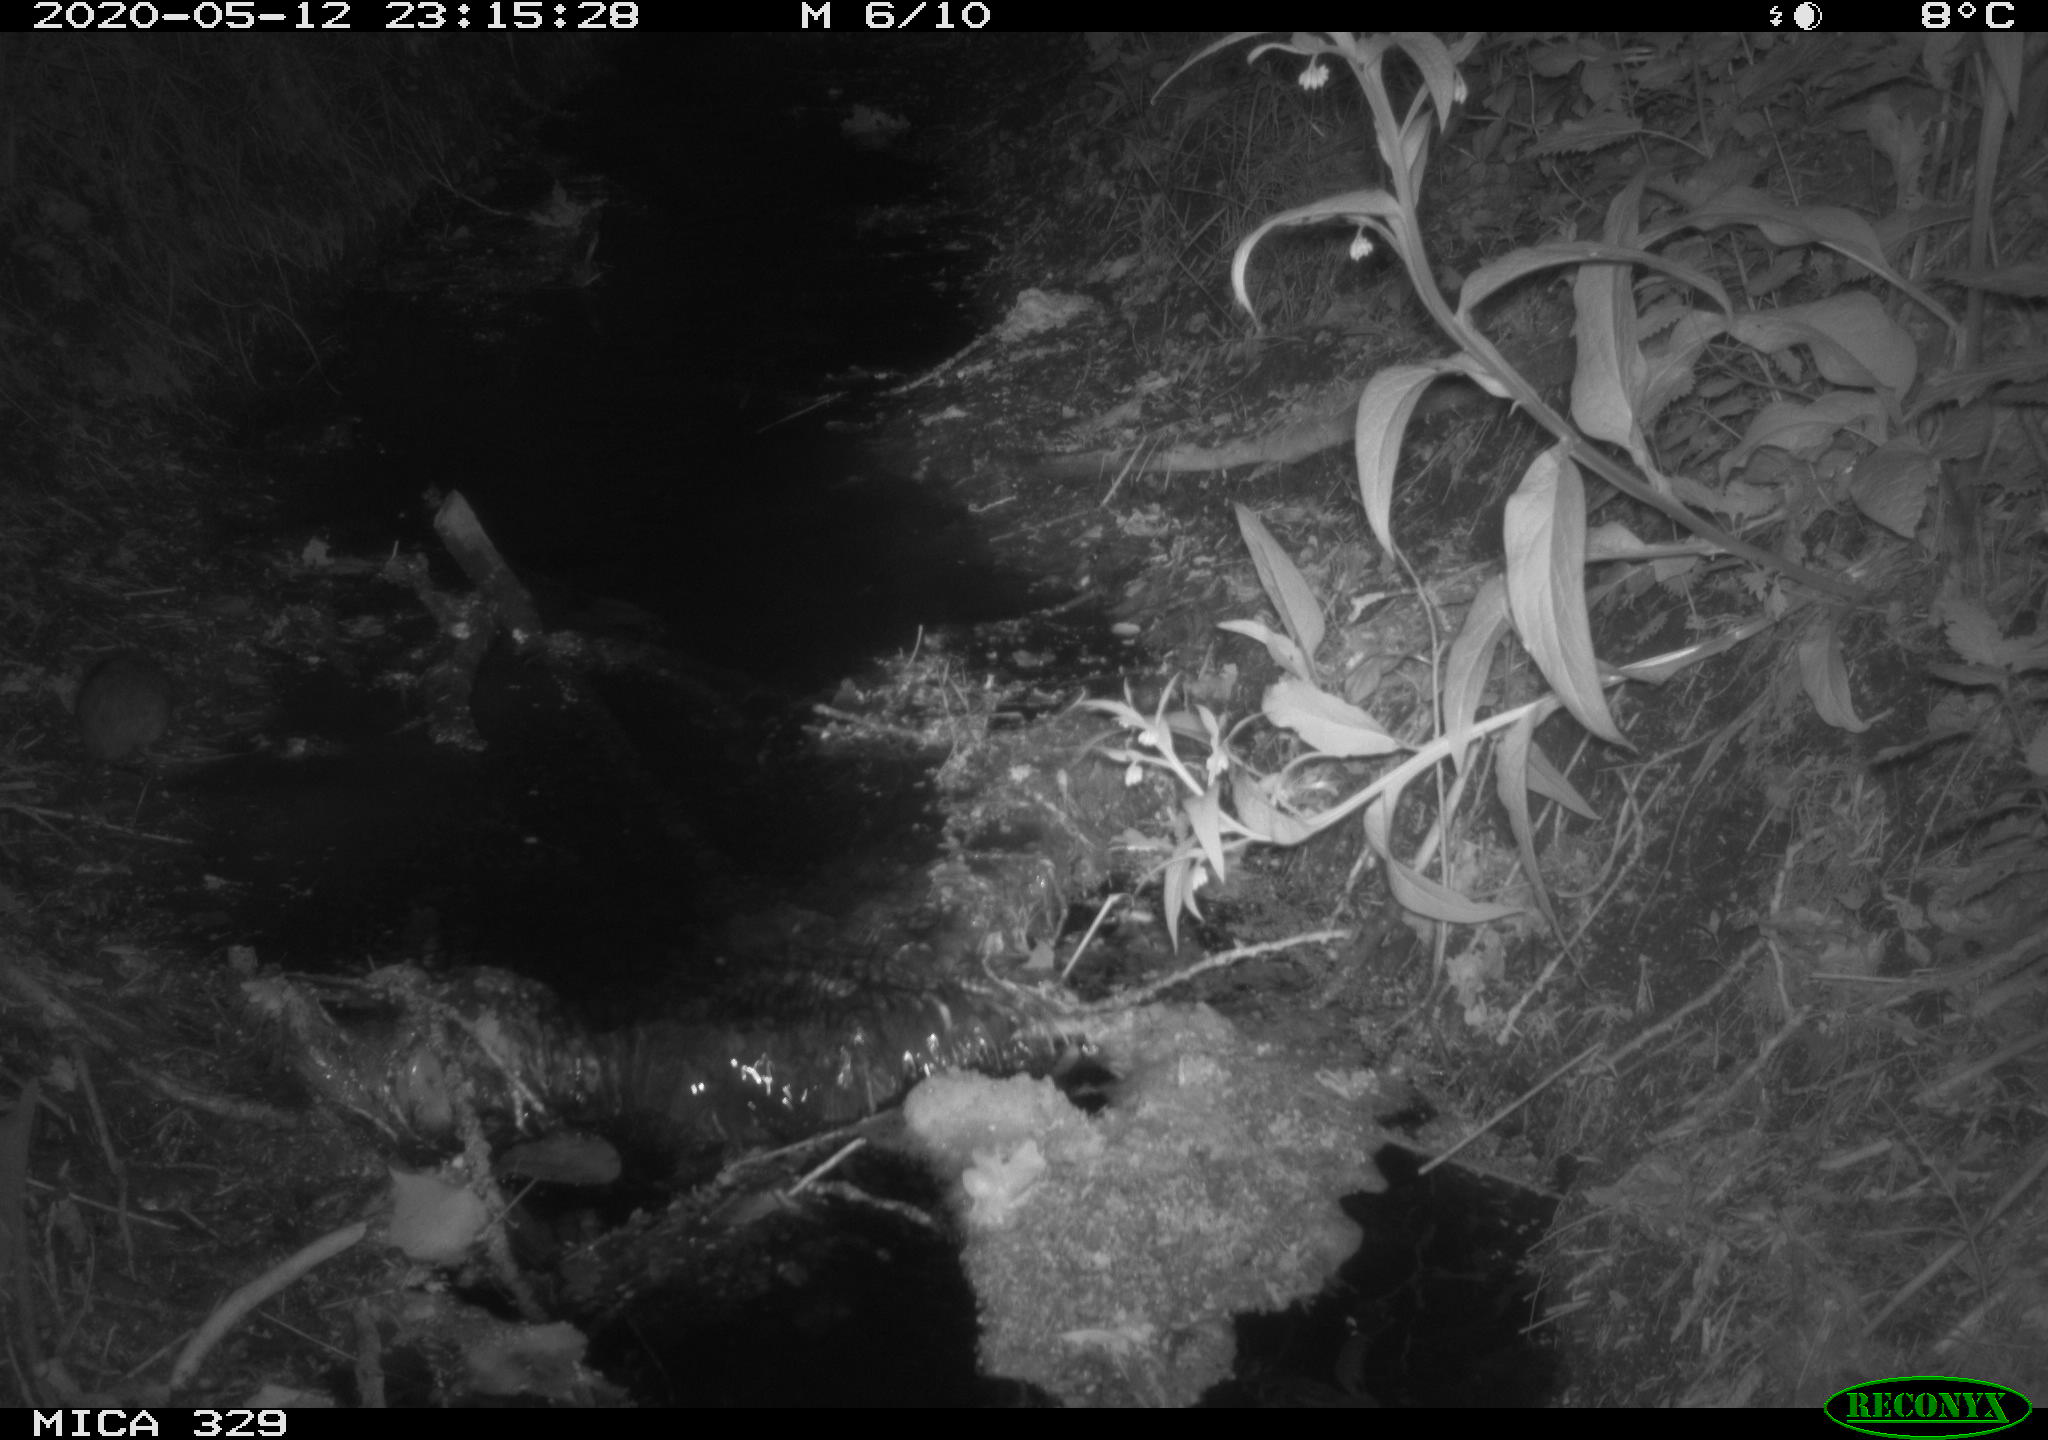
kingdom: Animalia
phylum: Chordata
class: Mammalia
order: Rodentia
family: Muridae
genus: Rattus
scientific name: Rattus norvegicus
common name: Brown rat
